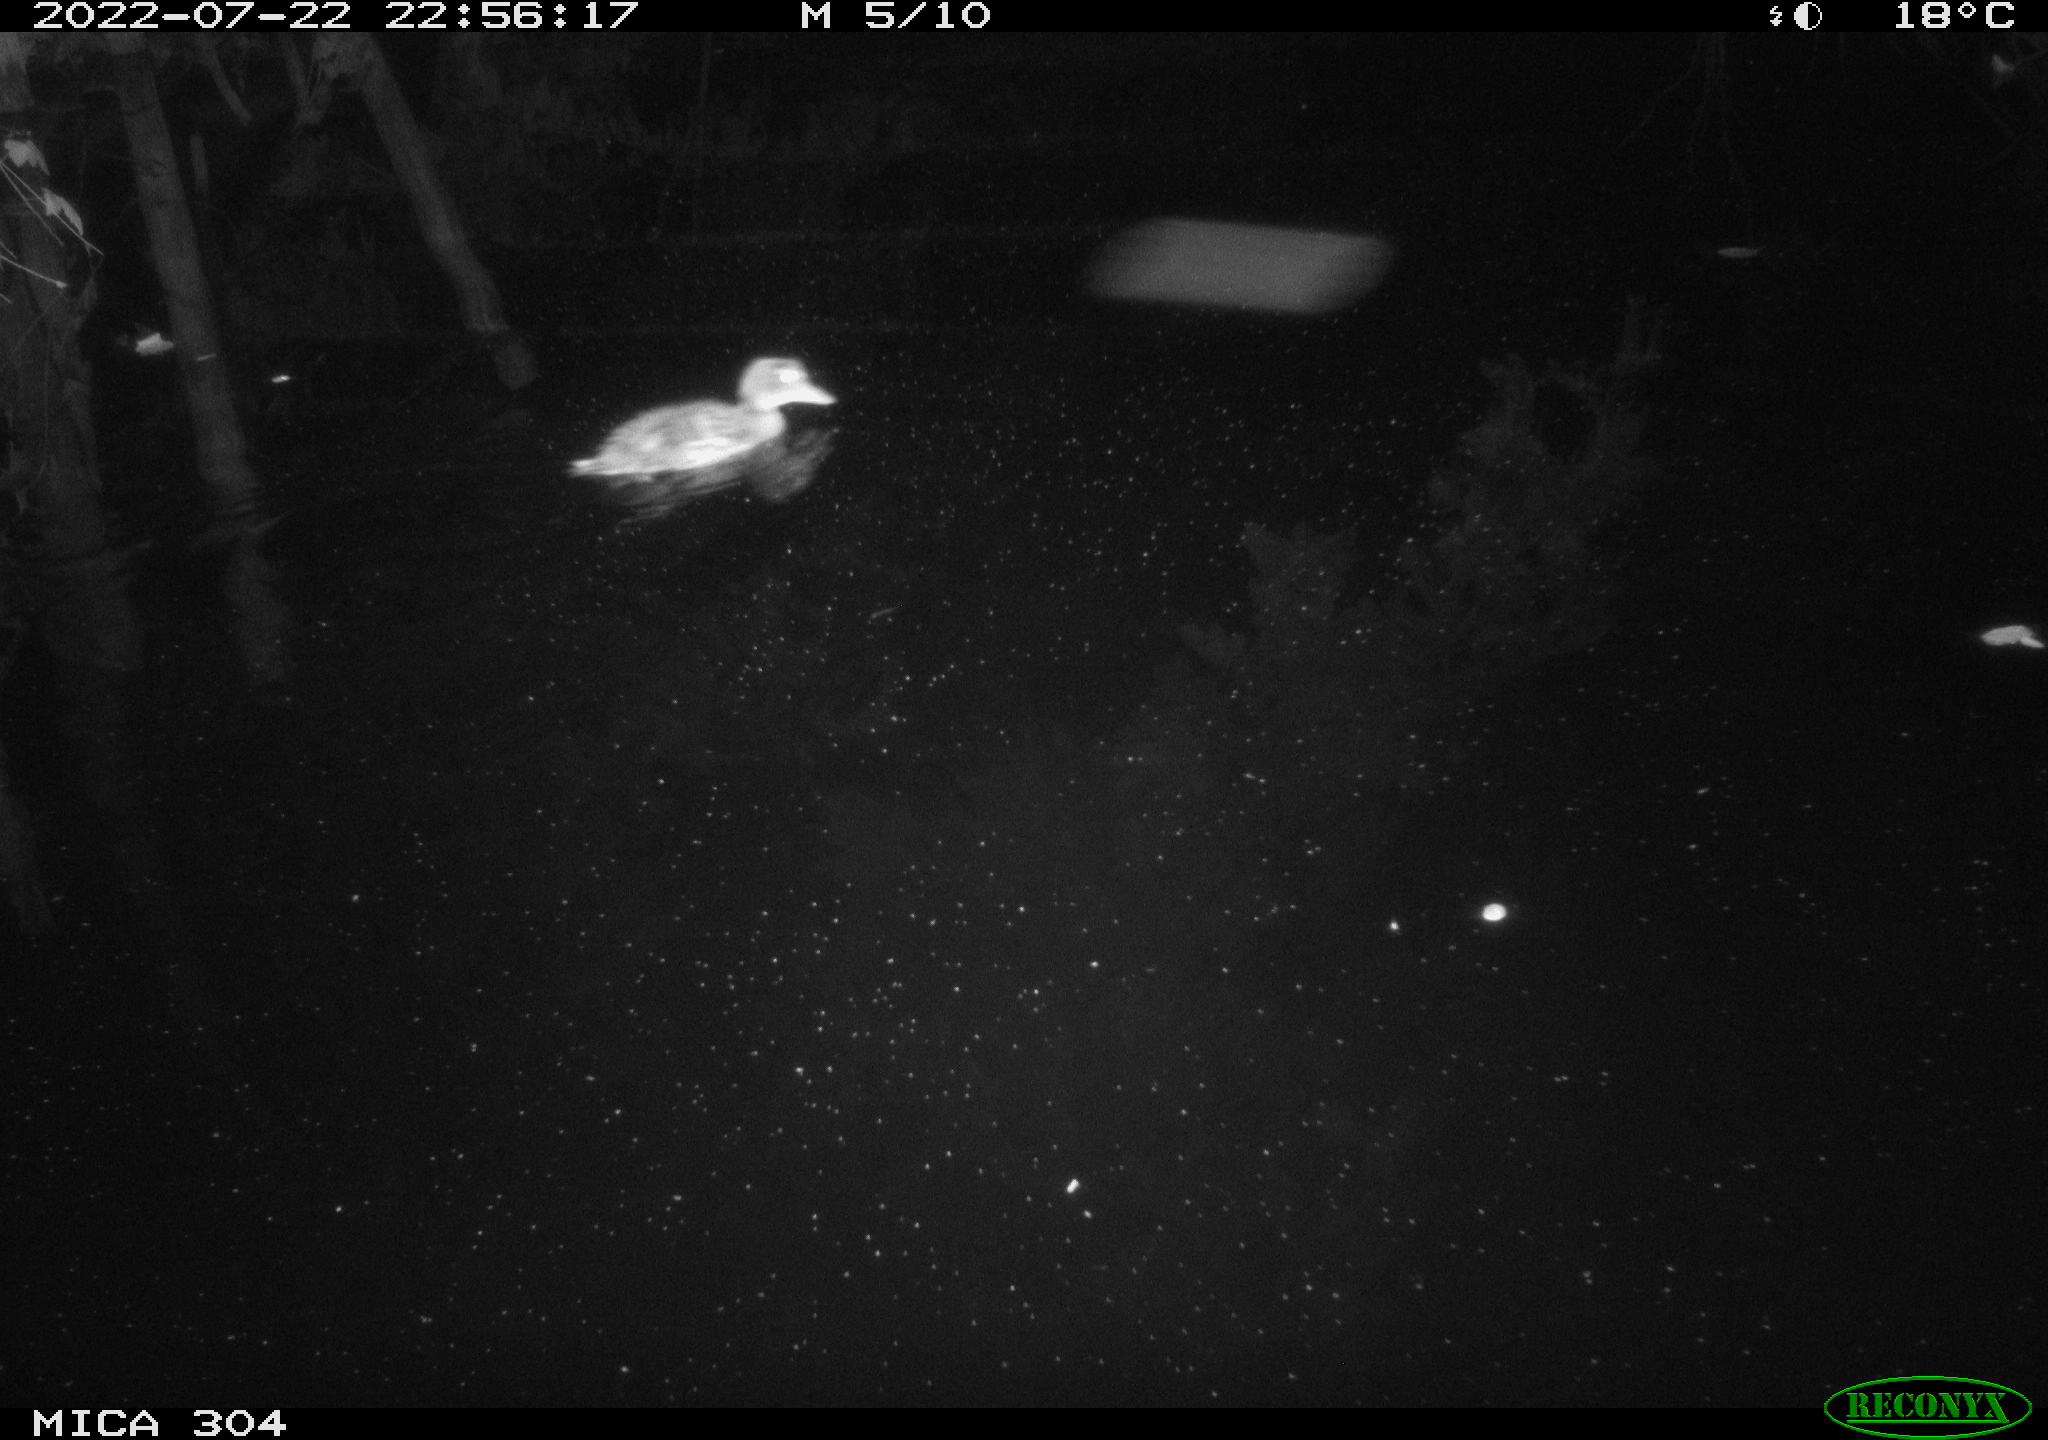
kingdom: Animalia
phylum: Chordata
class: Aves
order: Anseriformes
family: Anatidae
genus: Anas
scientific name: Anas platyrhynchos
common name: Mallard
